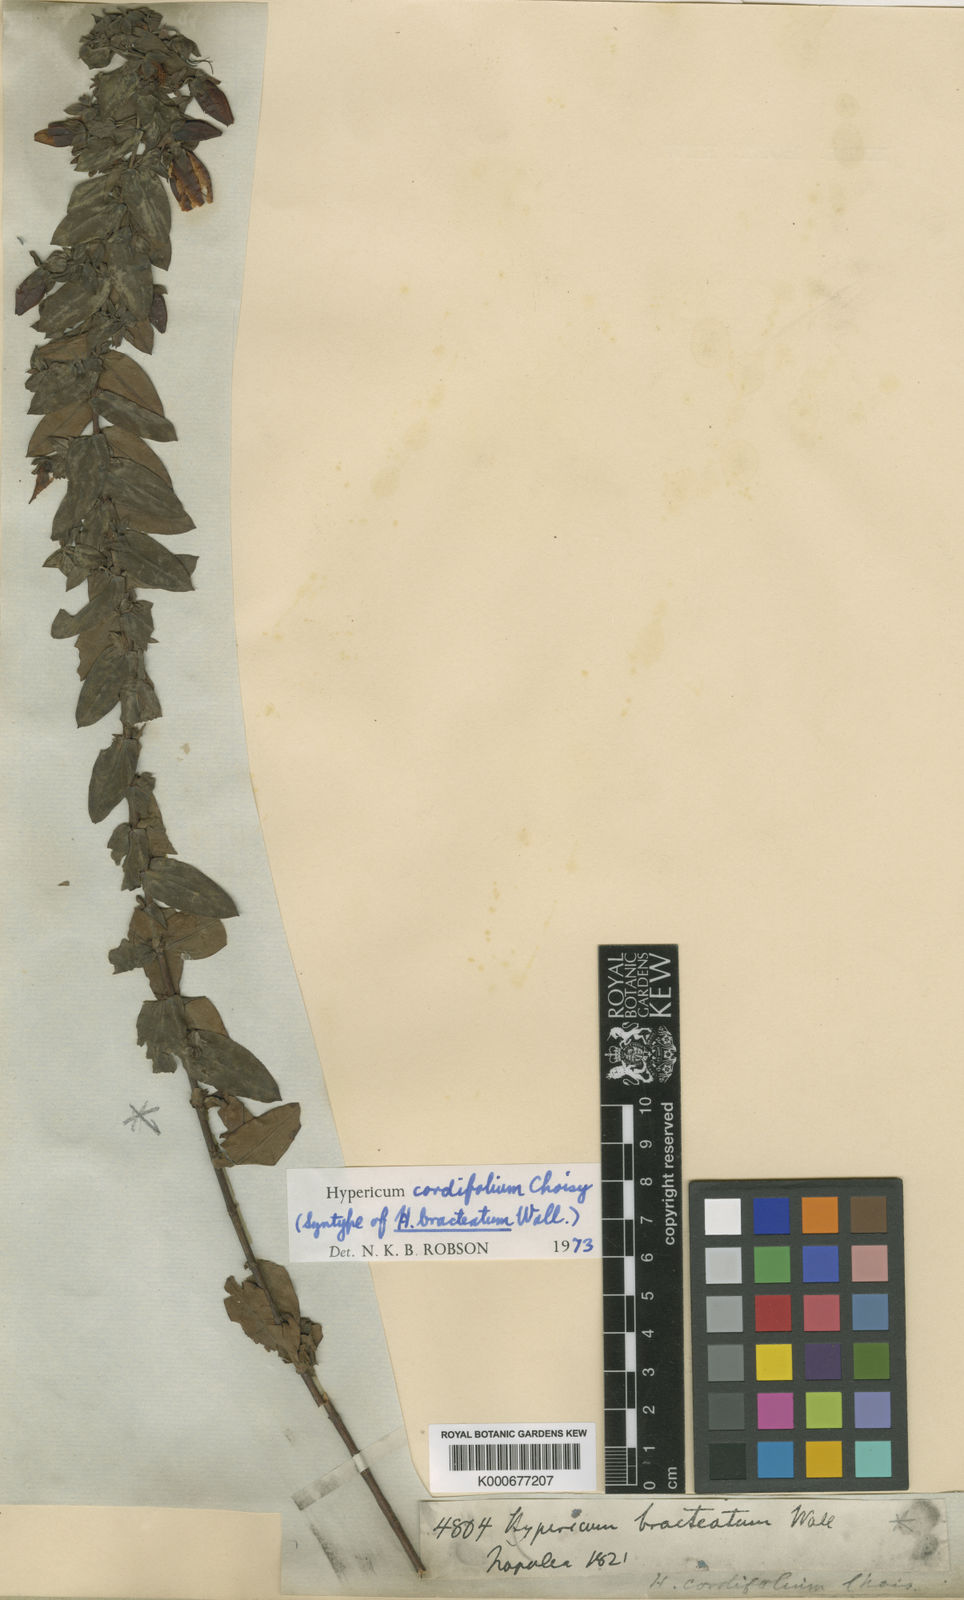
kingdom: Plantae
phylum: Tracheophyta
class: Magnoliopsida
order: Malpighiales
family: Hypericaceae
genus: Hypericum
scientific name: Hypericum cordifolium
